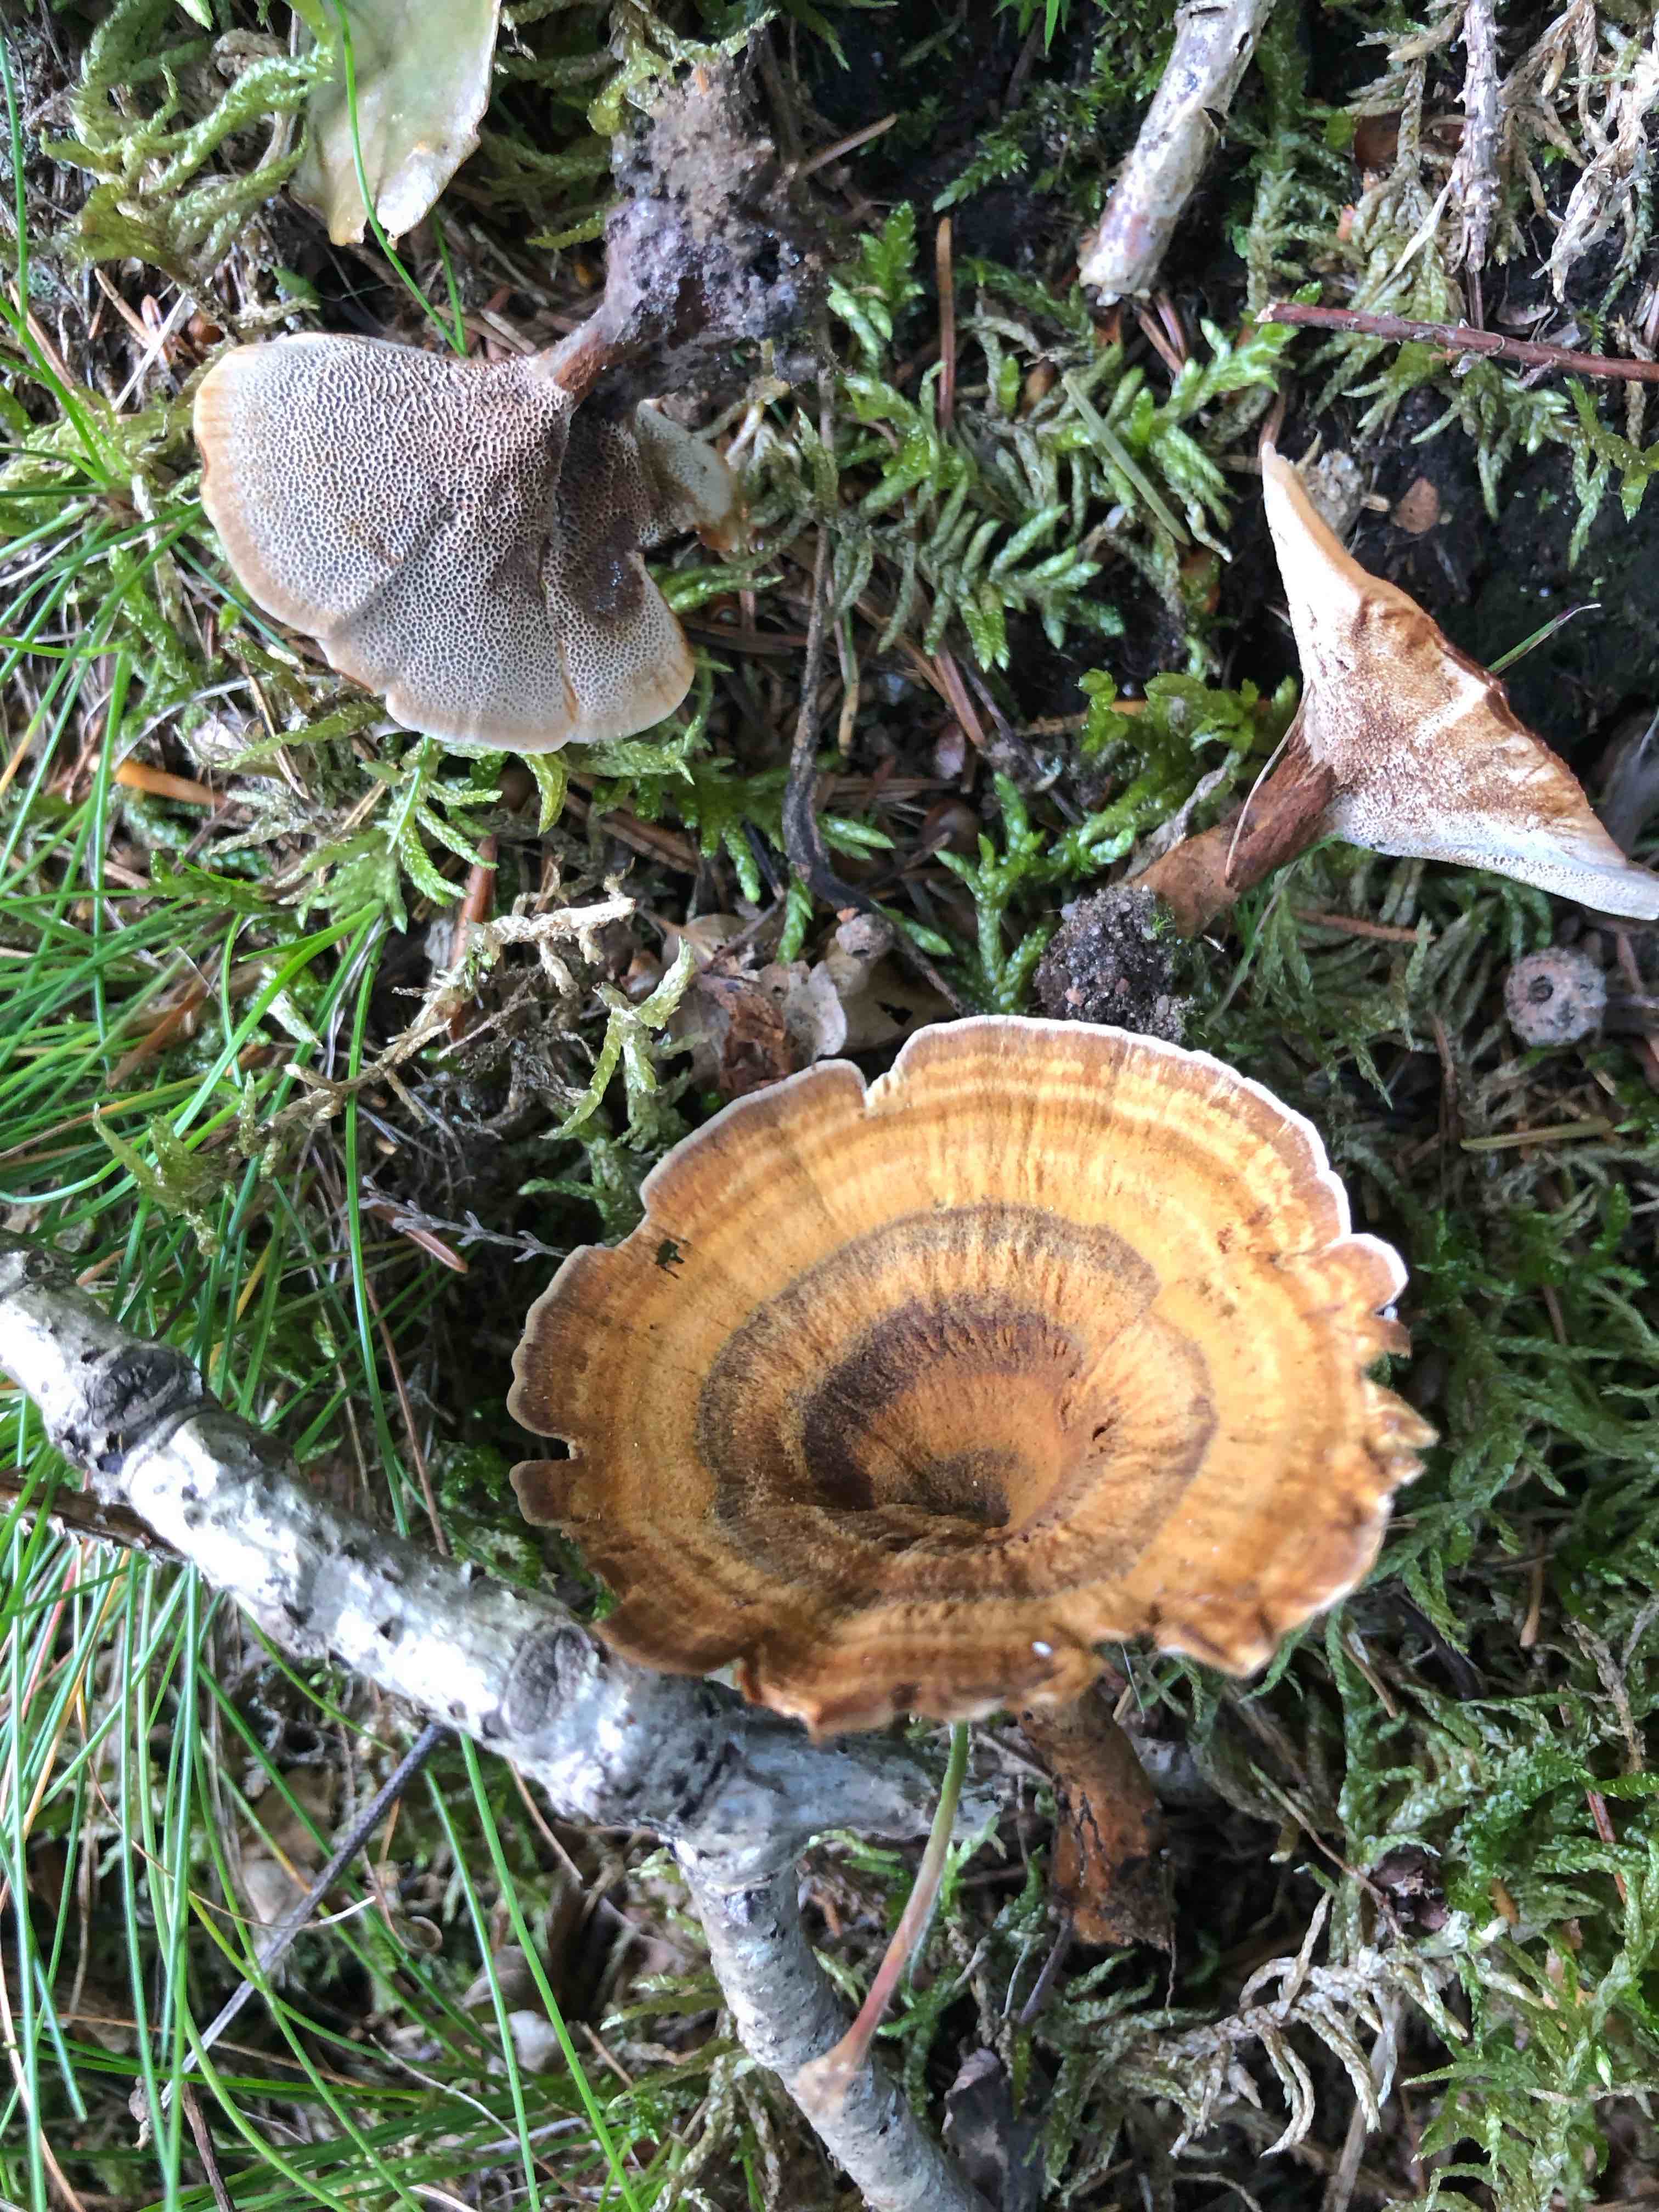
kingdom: Fungi
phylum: Basidiomycota
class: Agaricomycetes
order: Hymenochaetales
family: Hymenochaetaceae
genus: Coltricia
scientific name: Coltricia perennis
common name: almindelig sandporesvamp
